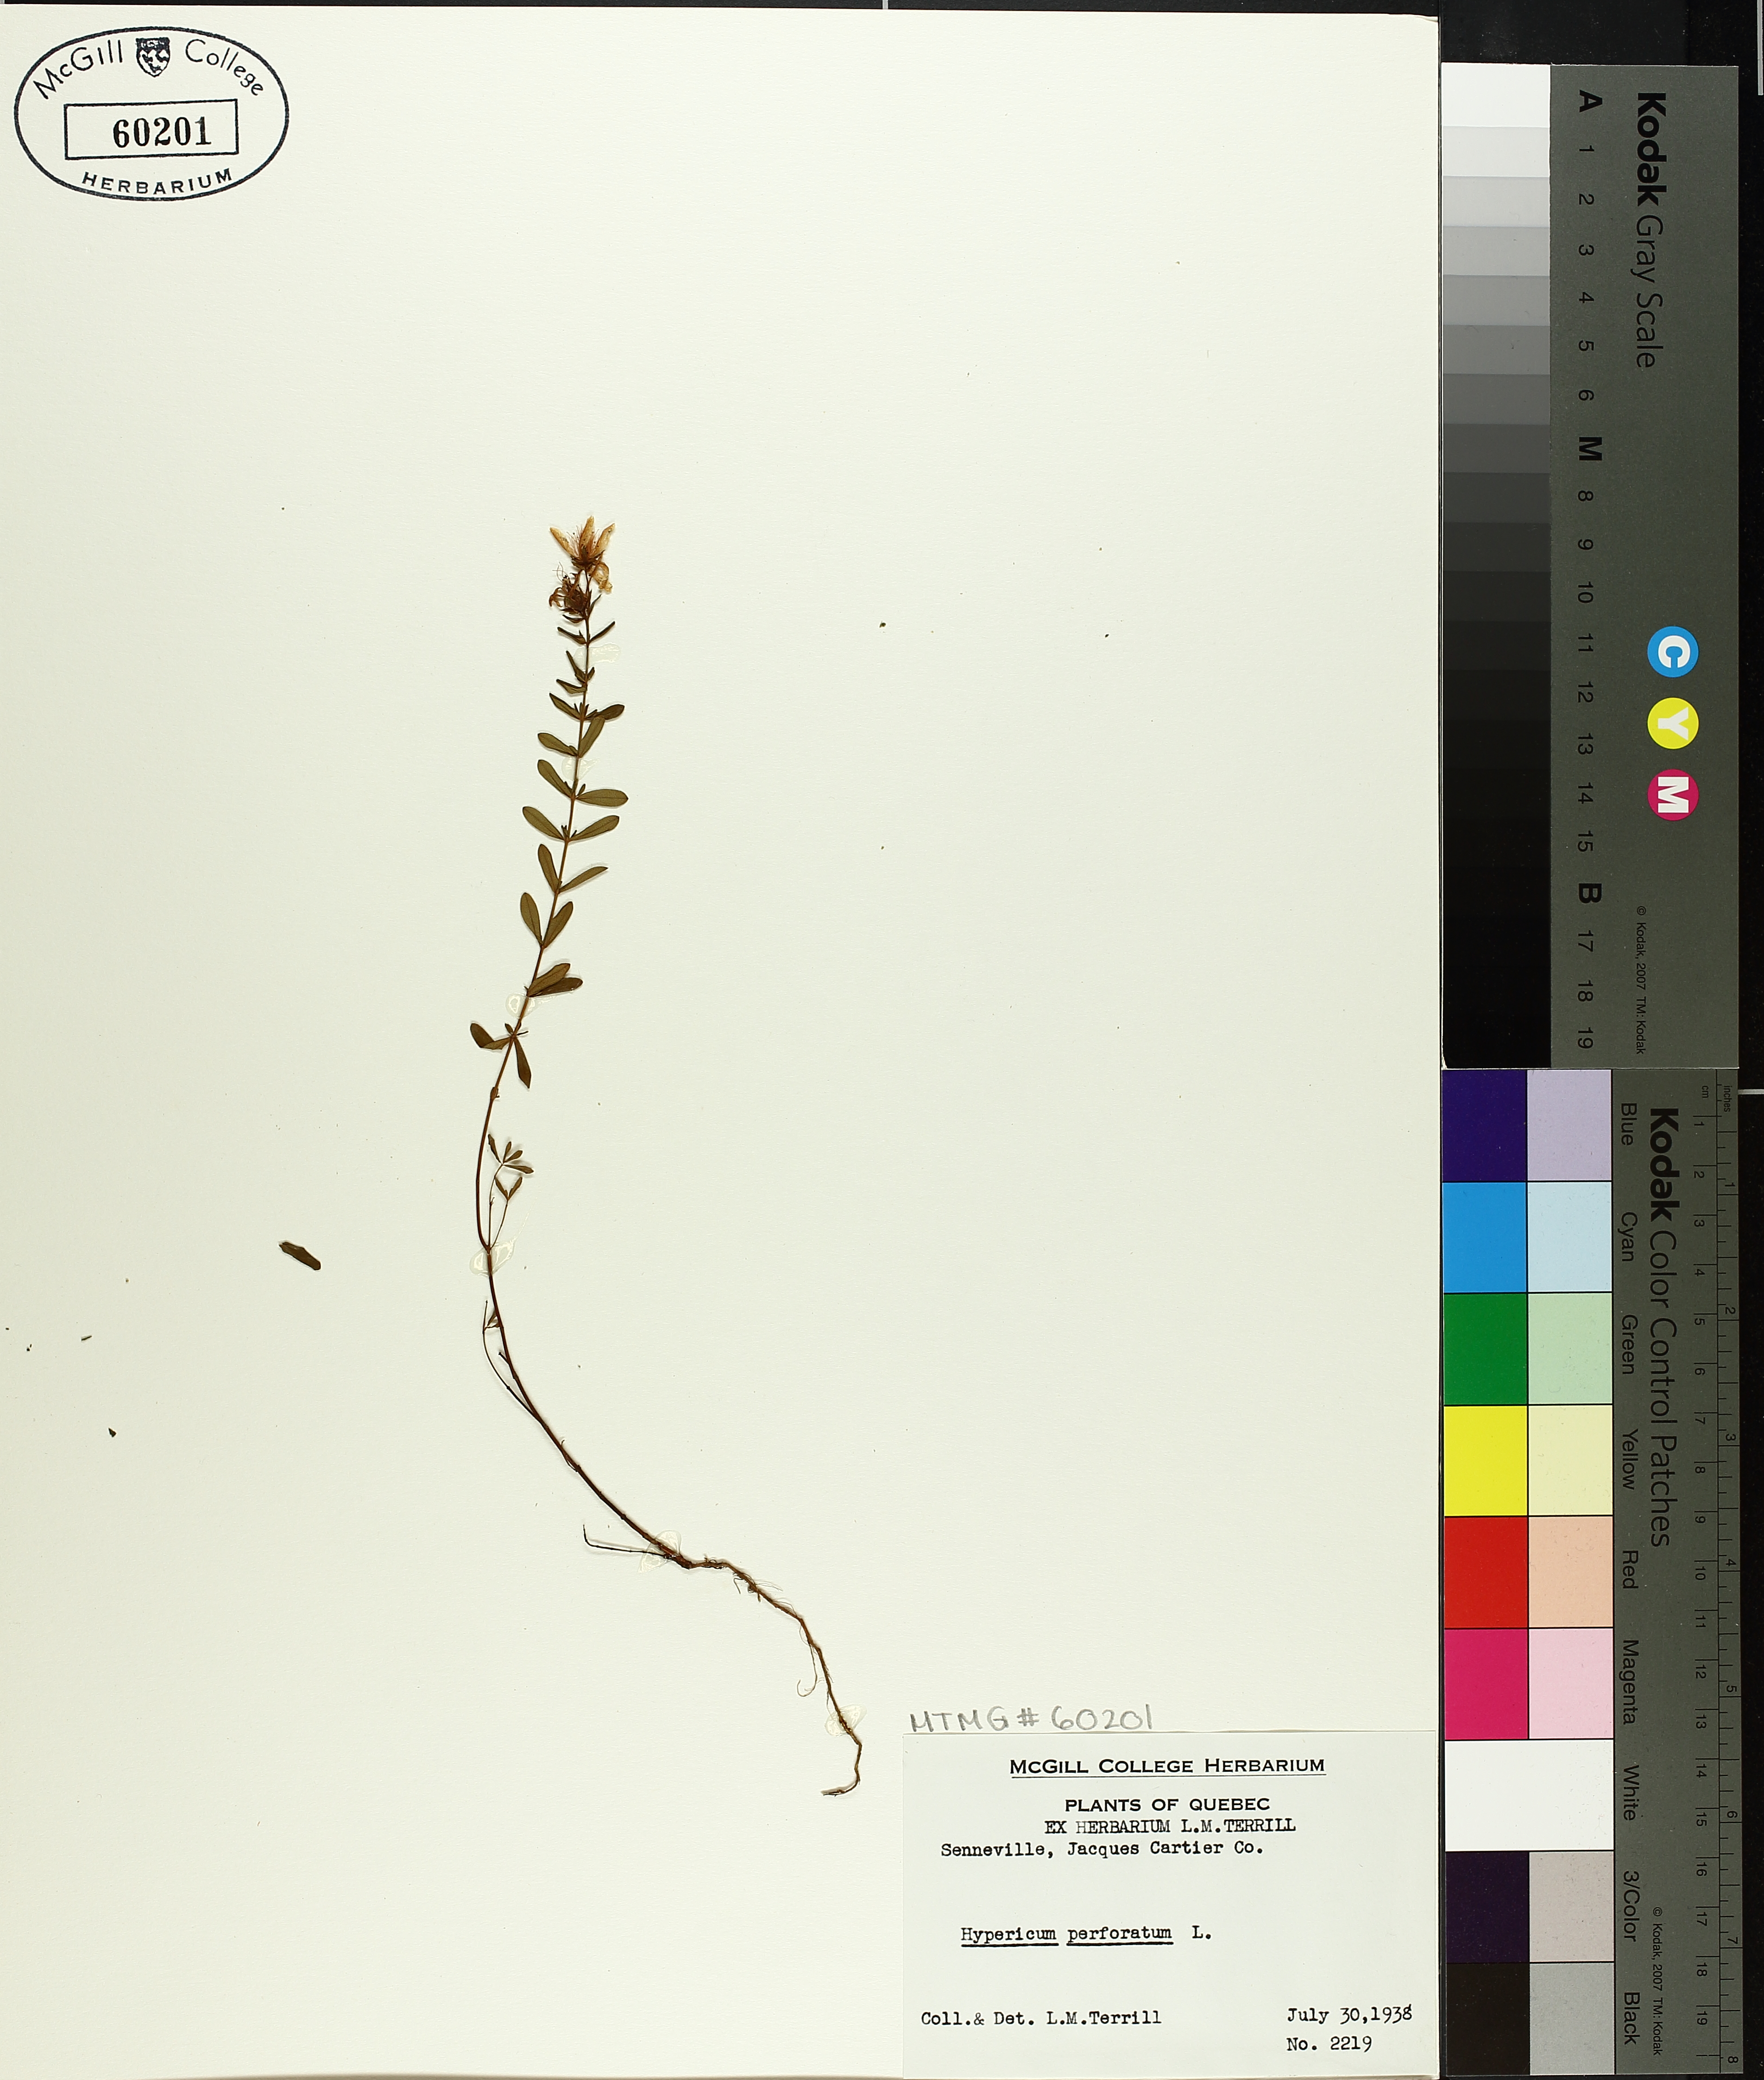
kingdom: Plantae
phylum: Tracheophyta
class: Magnoliopsida
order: Malpighiales
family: Hypericaceae
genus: Hypericum
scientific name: Hypericum perforatum
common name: Common st. johnswort
